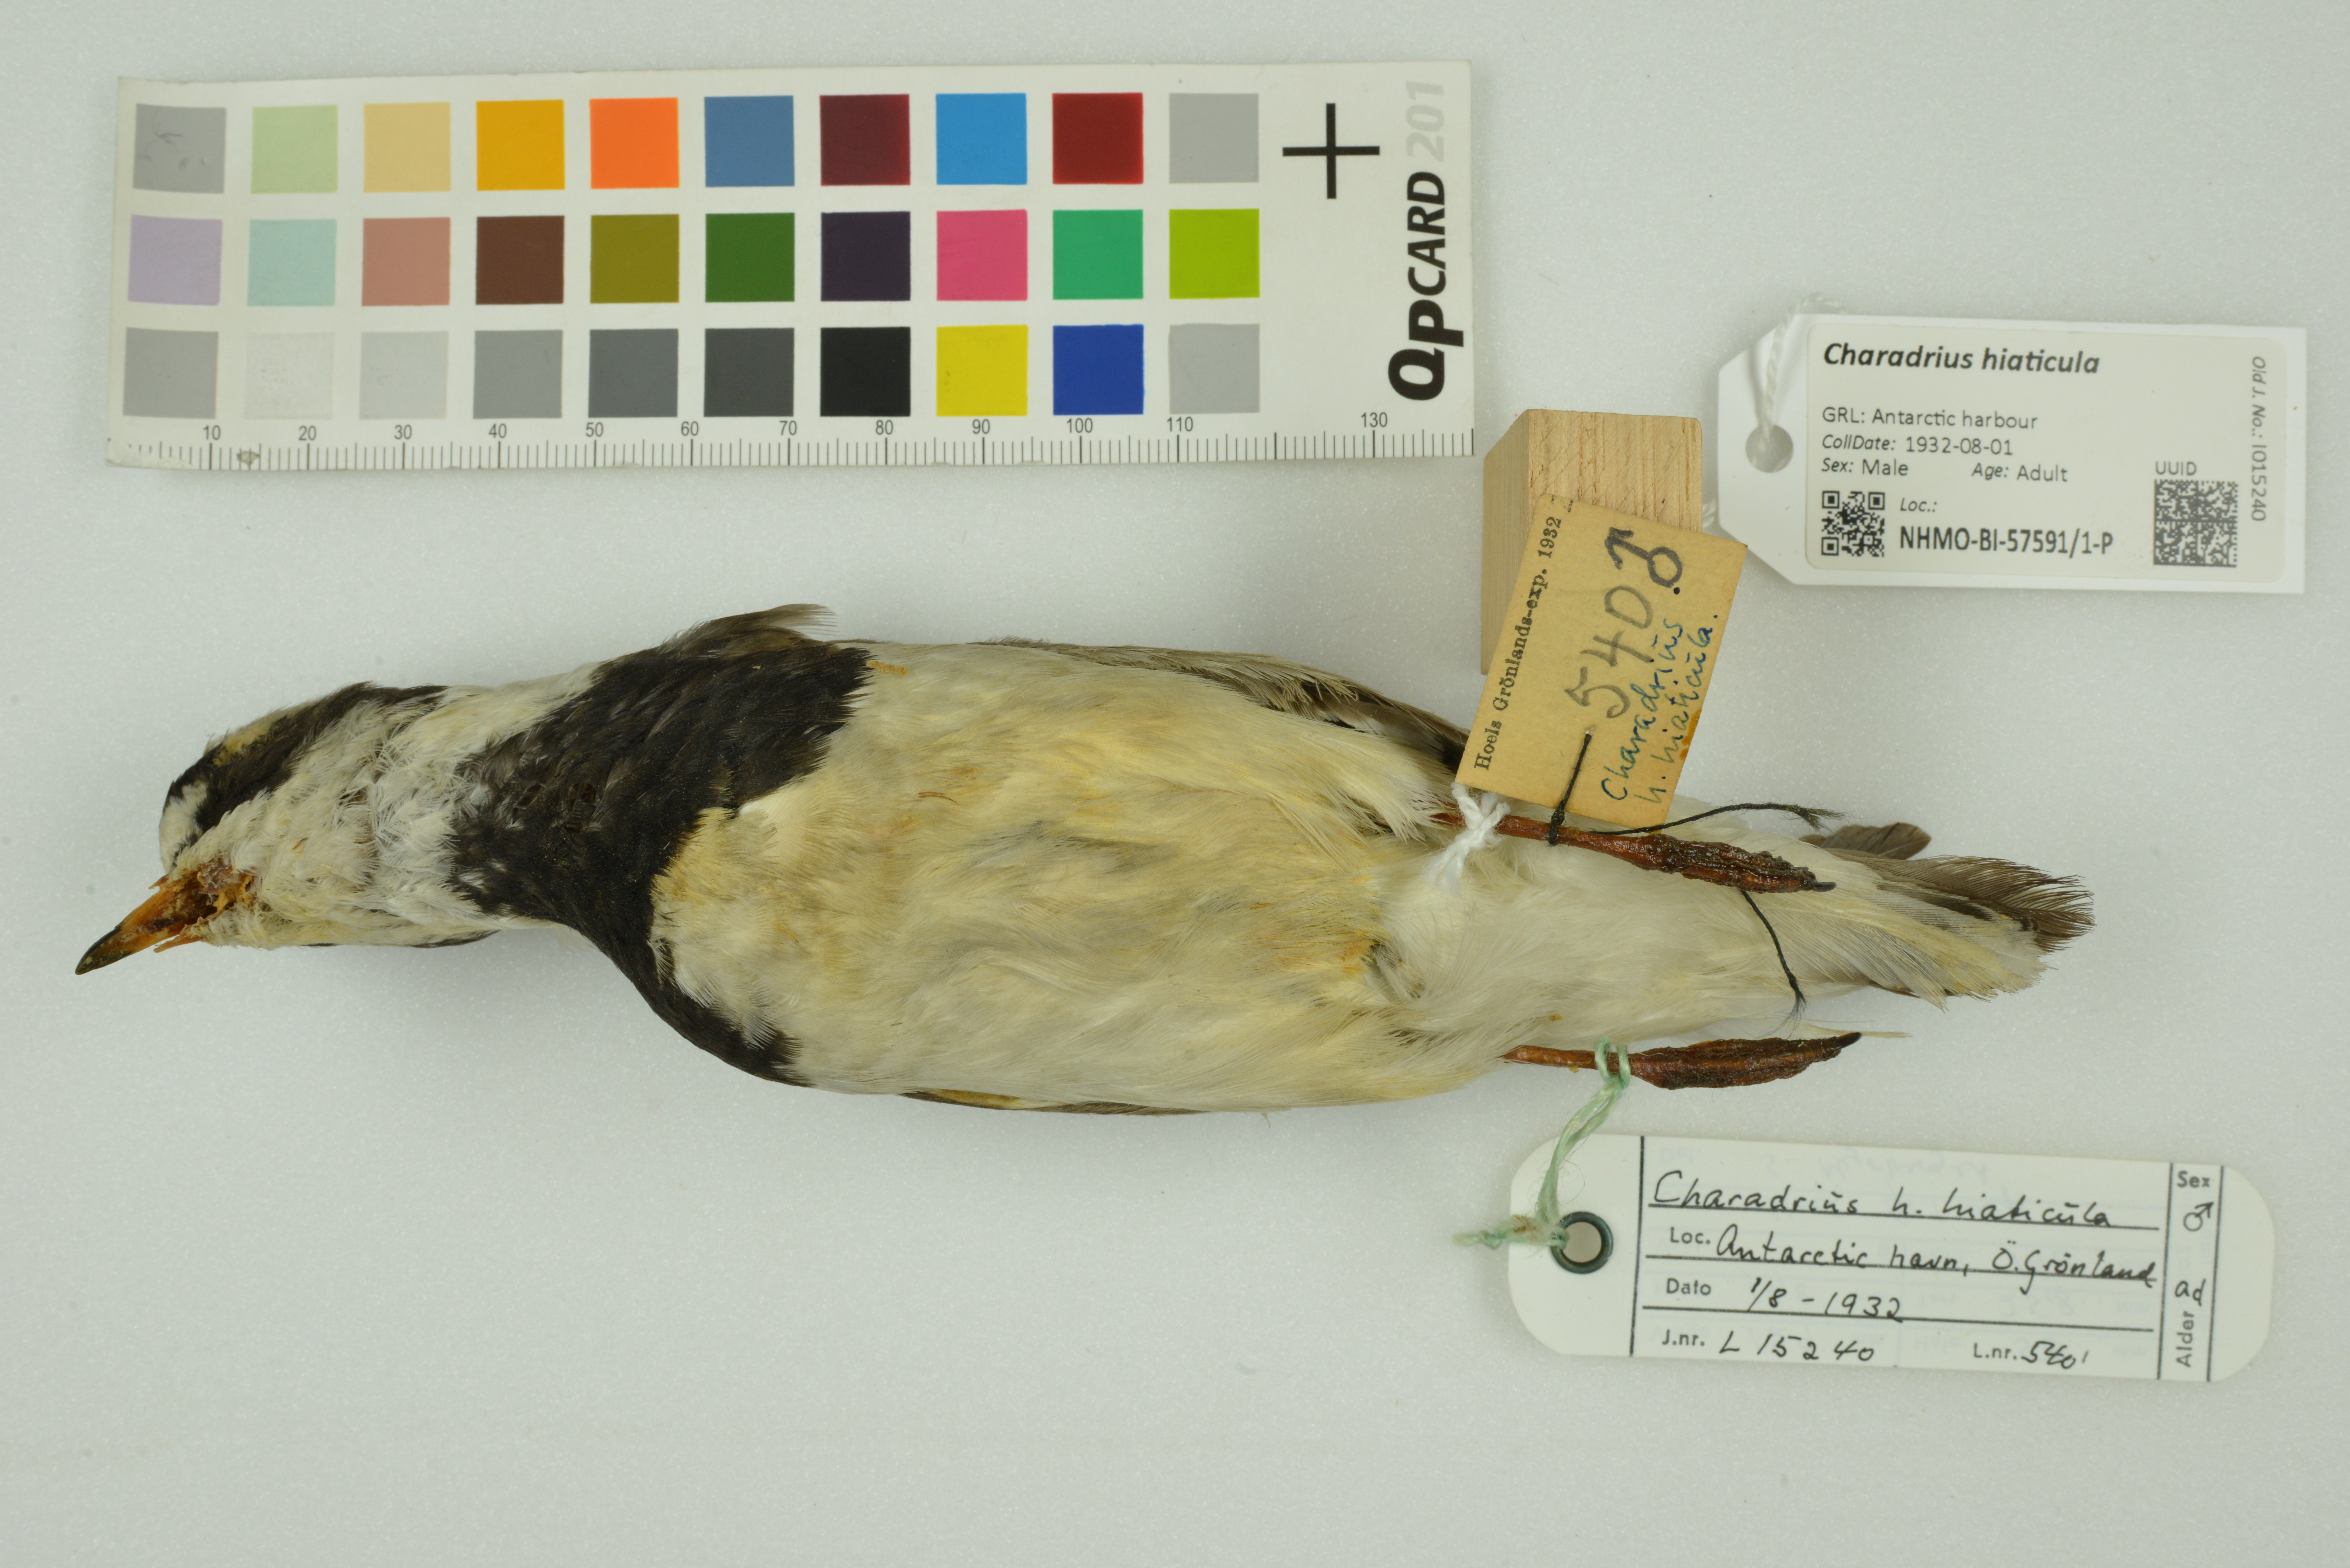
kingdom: Animalia
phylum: Chordata
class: Aves
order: Charadriiformes
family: Charadriidae
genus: Charadrius
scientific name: Charadrius hiaticula
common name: Common ringed plover
